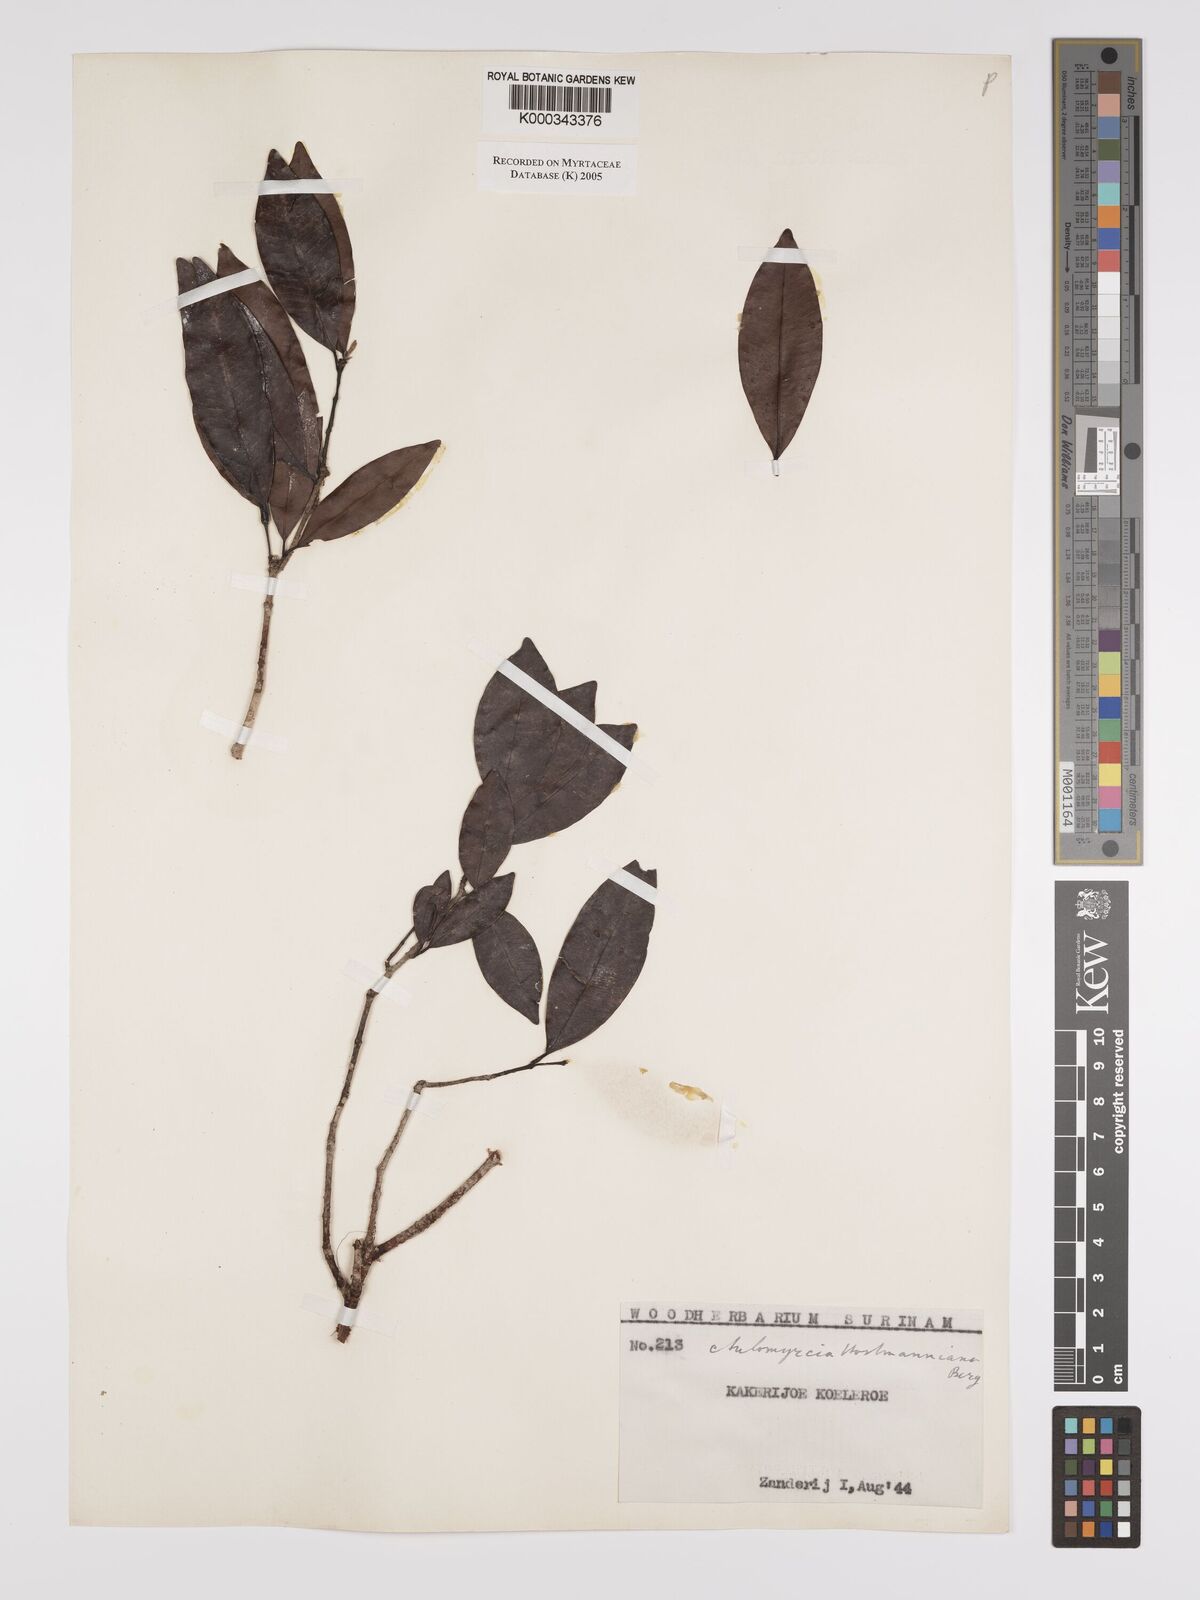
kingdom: Plantae
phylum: Tracheophyta
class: Magnoliopsida
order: Myrtales
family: Myrtaceae
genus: Myrcia
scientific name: Myrcia amazonica
